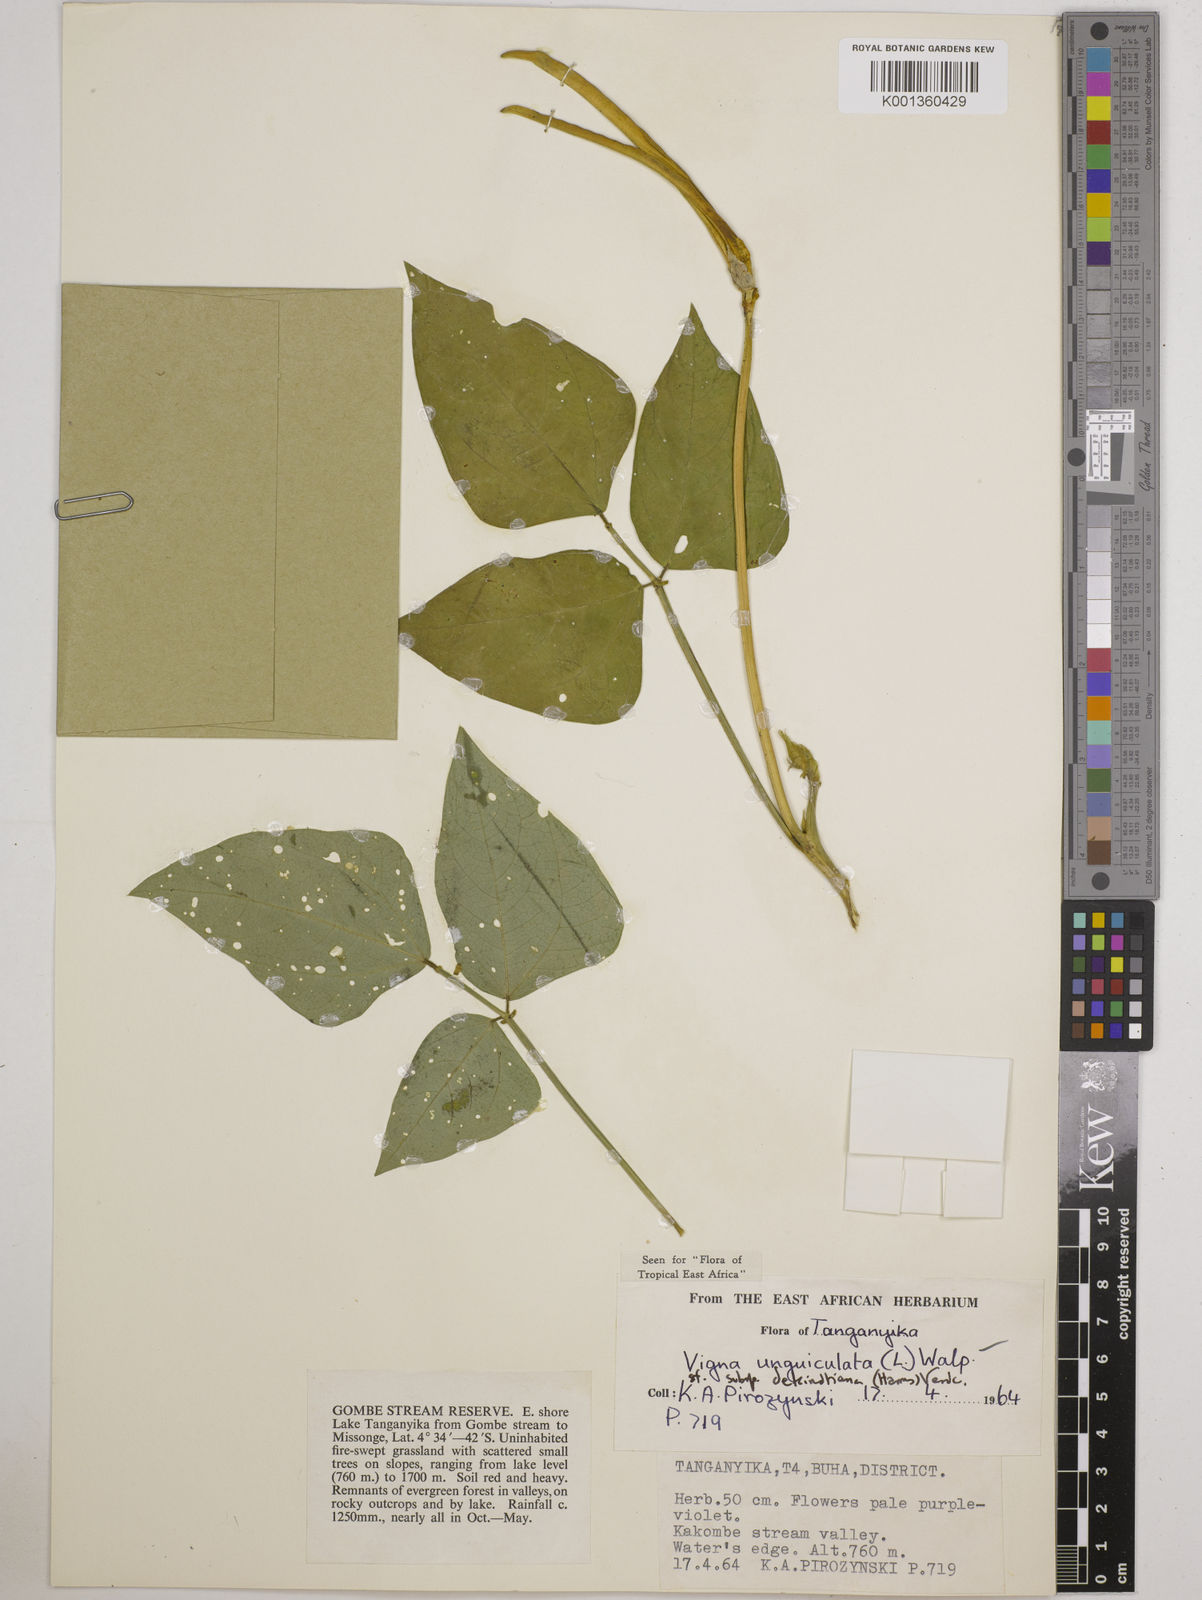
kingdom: Plantae
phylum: Tracheophyta
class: Magnoliopsida
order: Fabales
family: Fabaceae
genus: Vigna
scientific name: Vigna
